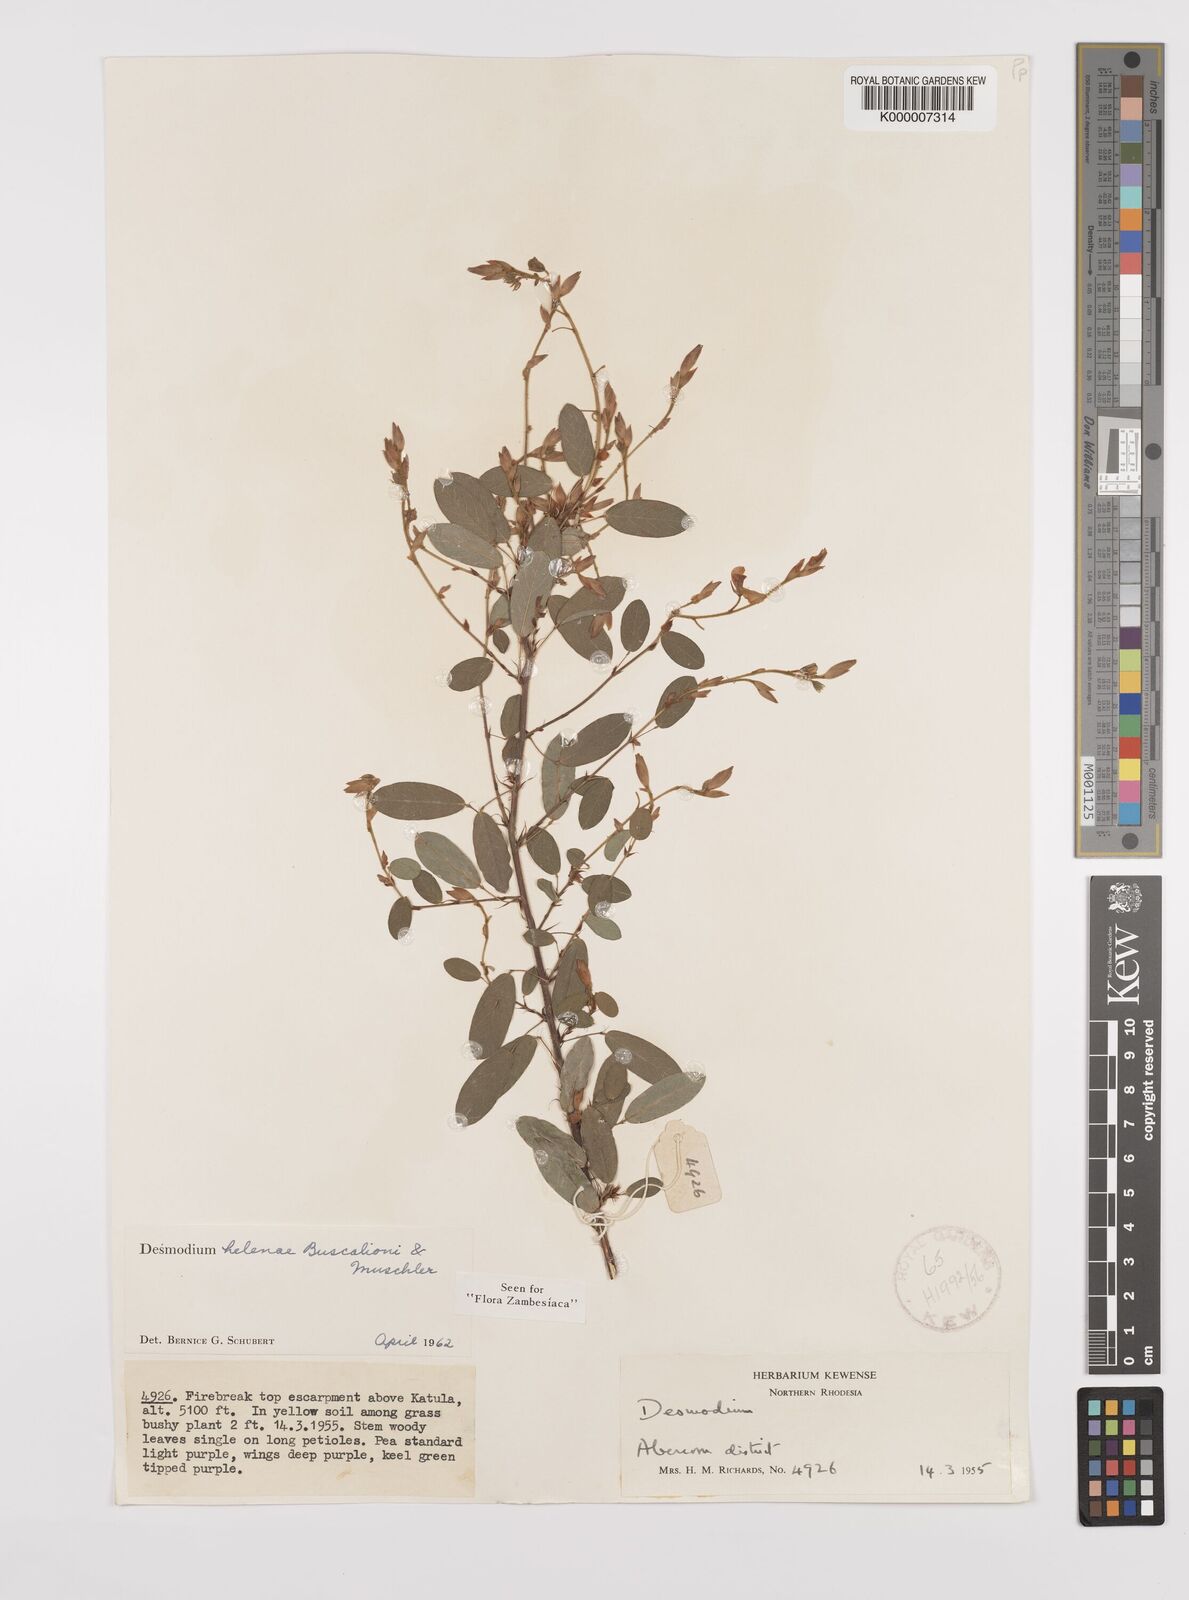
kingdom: Plantae
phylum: Tracheophyta
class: Magnoliopsida
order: Fabales
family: Fabaceae
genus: Grona
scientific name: Grona helenae
